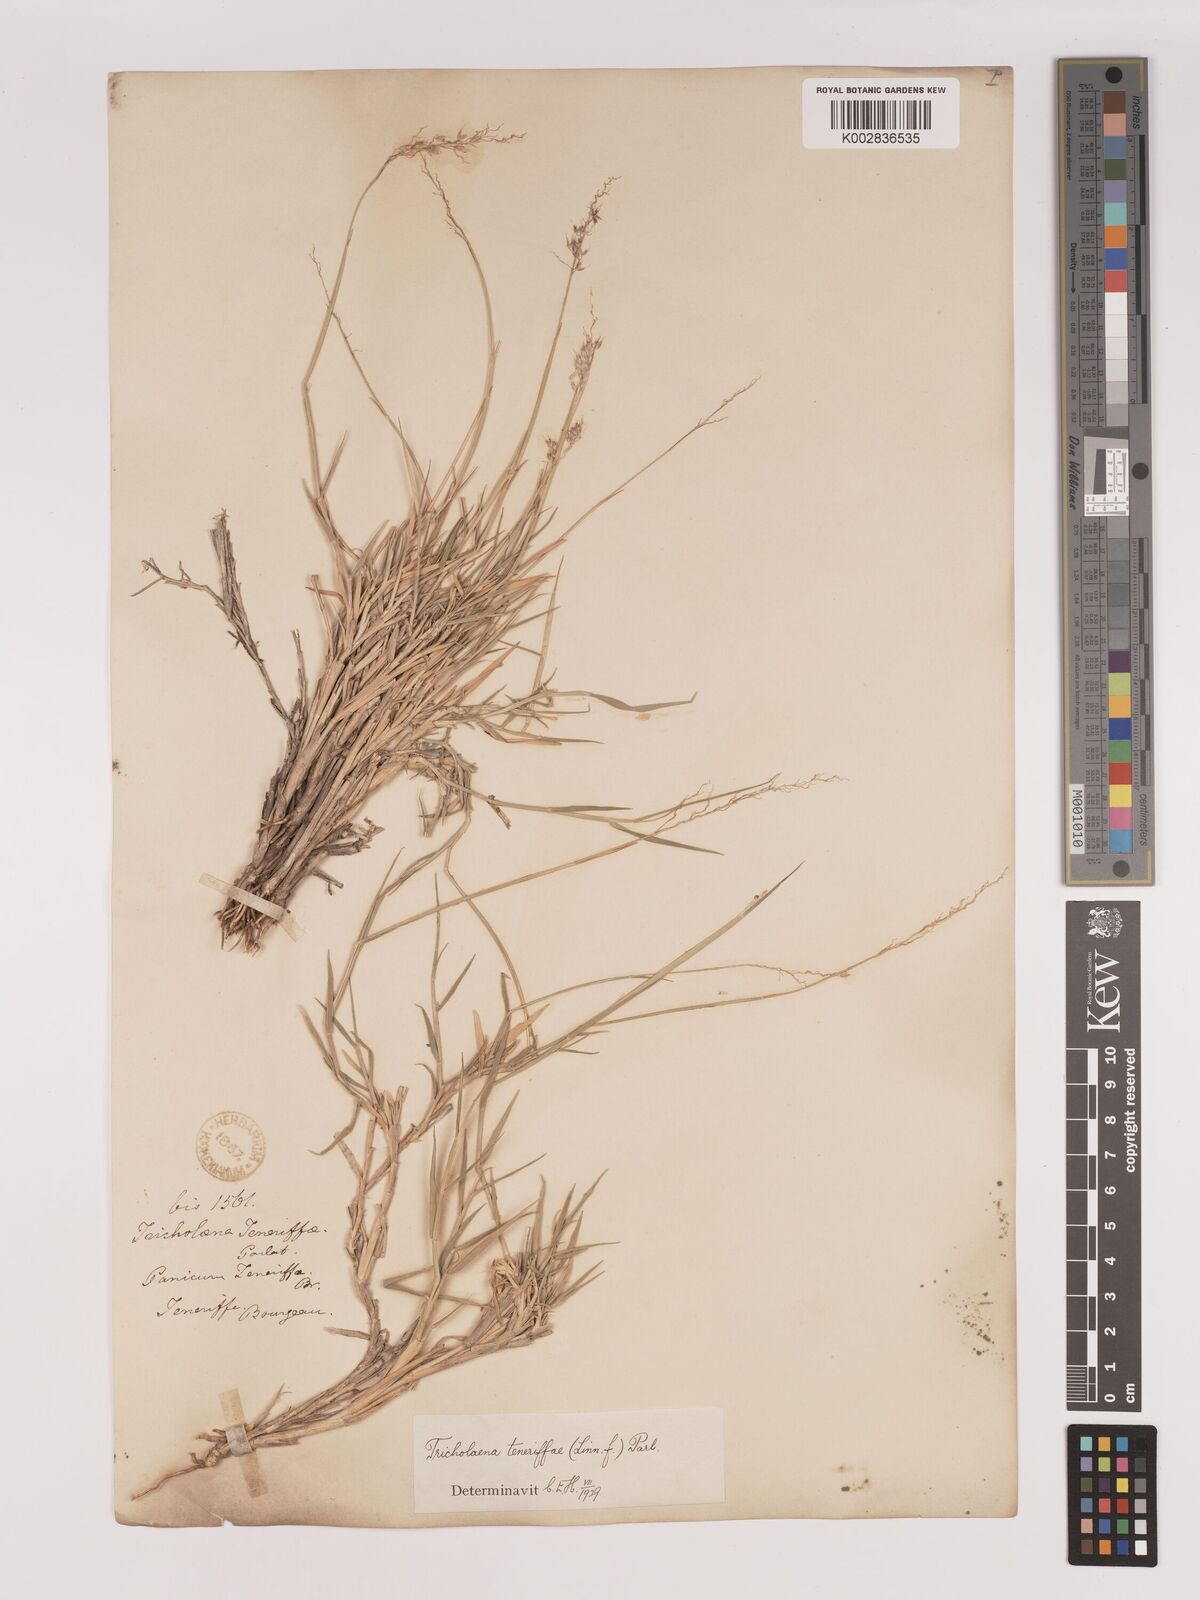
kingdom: Plantae
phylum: Tracheophyta
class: Liliopsida
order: Poales
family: Poaceae
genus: Tricholaena
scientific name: Tricholaena teneriffae
